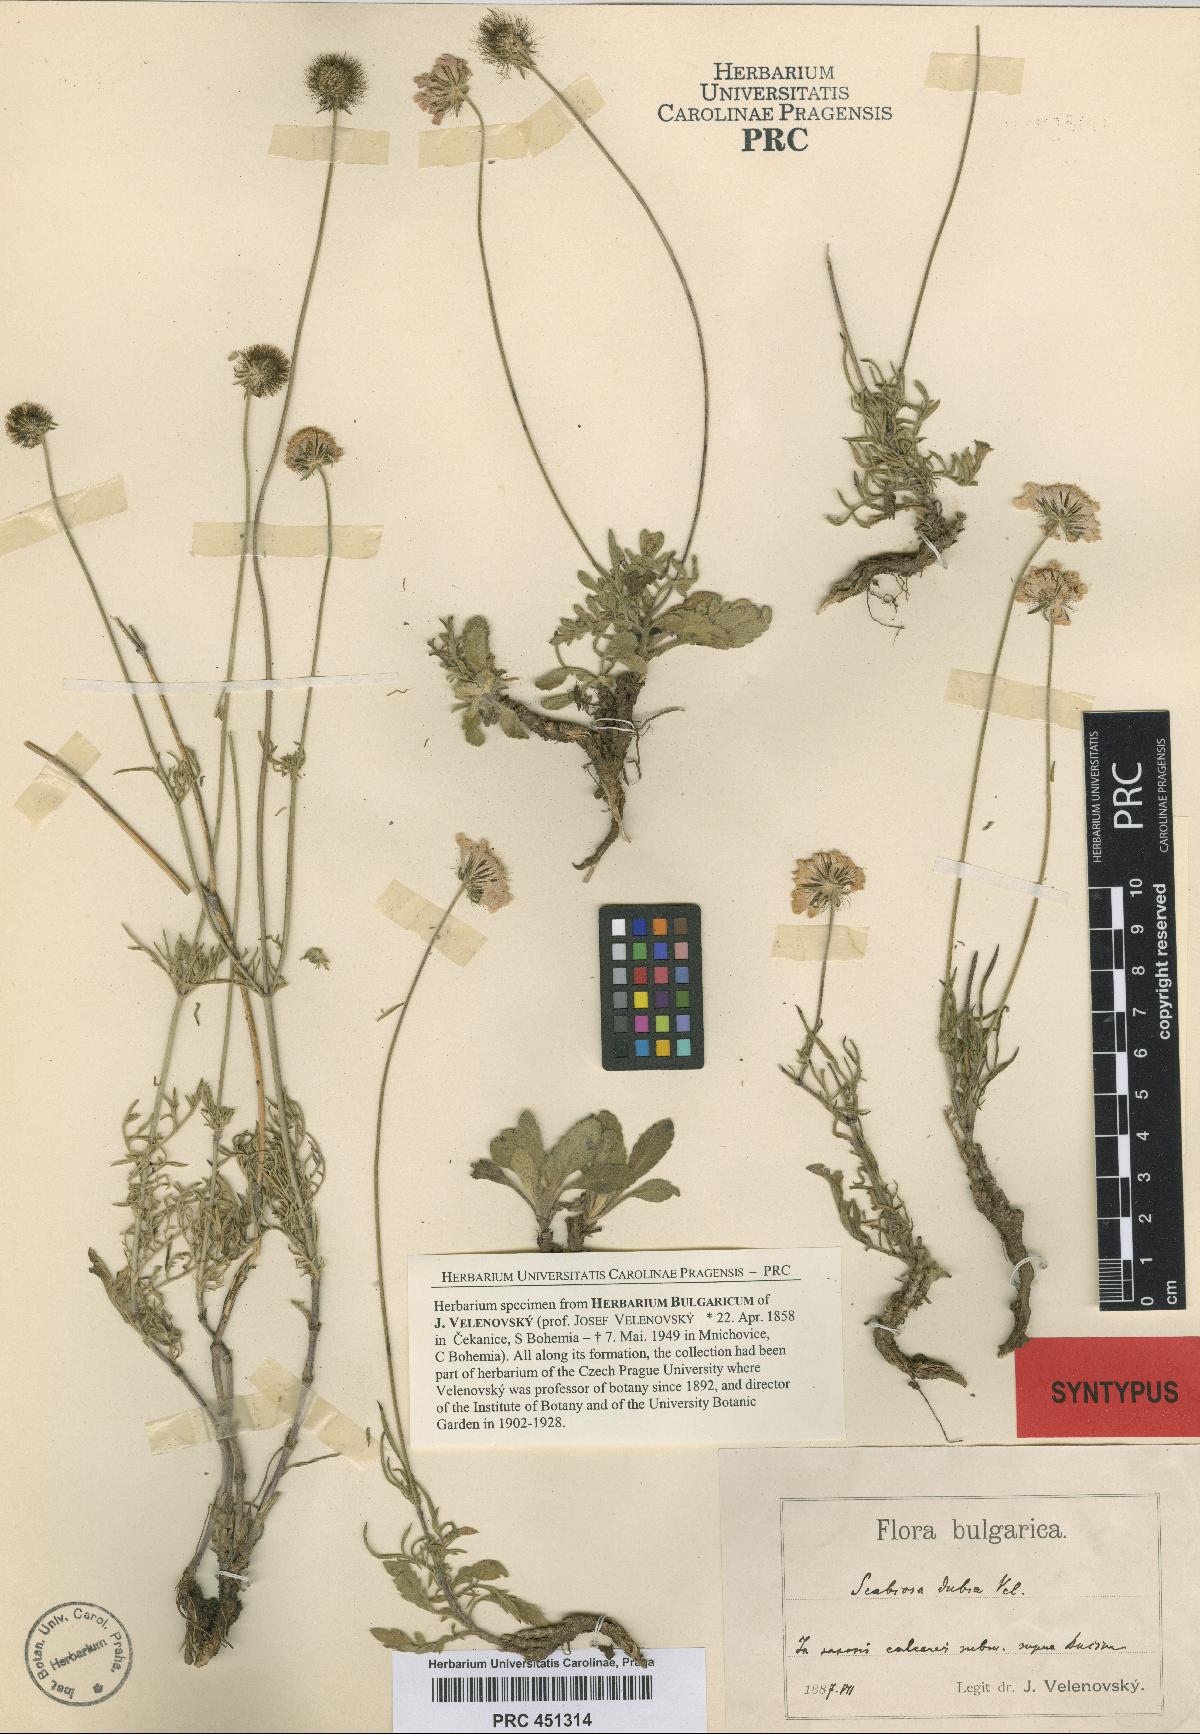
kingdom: Plantae
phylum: Tracheophyta
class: Magnoliopsida
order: Dipsacales
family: Caprifoliaceae
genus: Scabiosa
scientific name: Scabiosa velenovskiana
